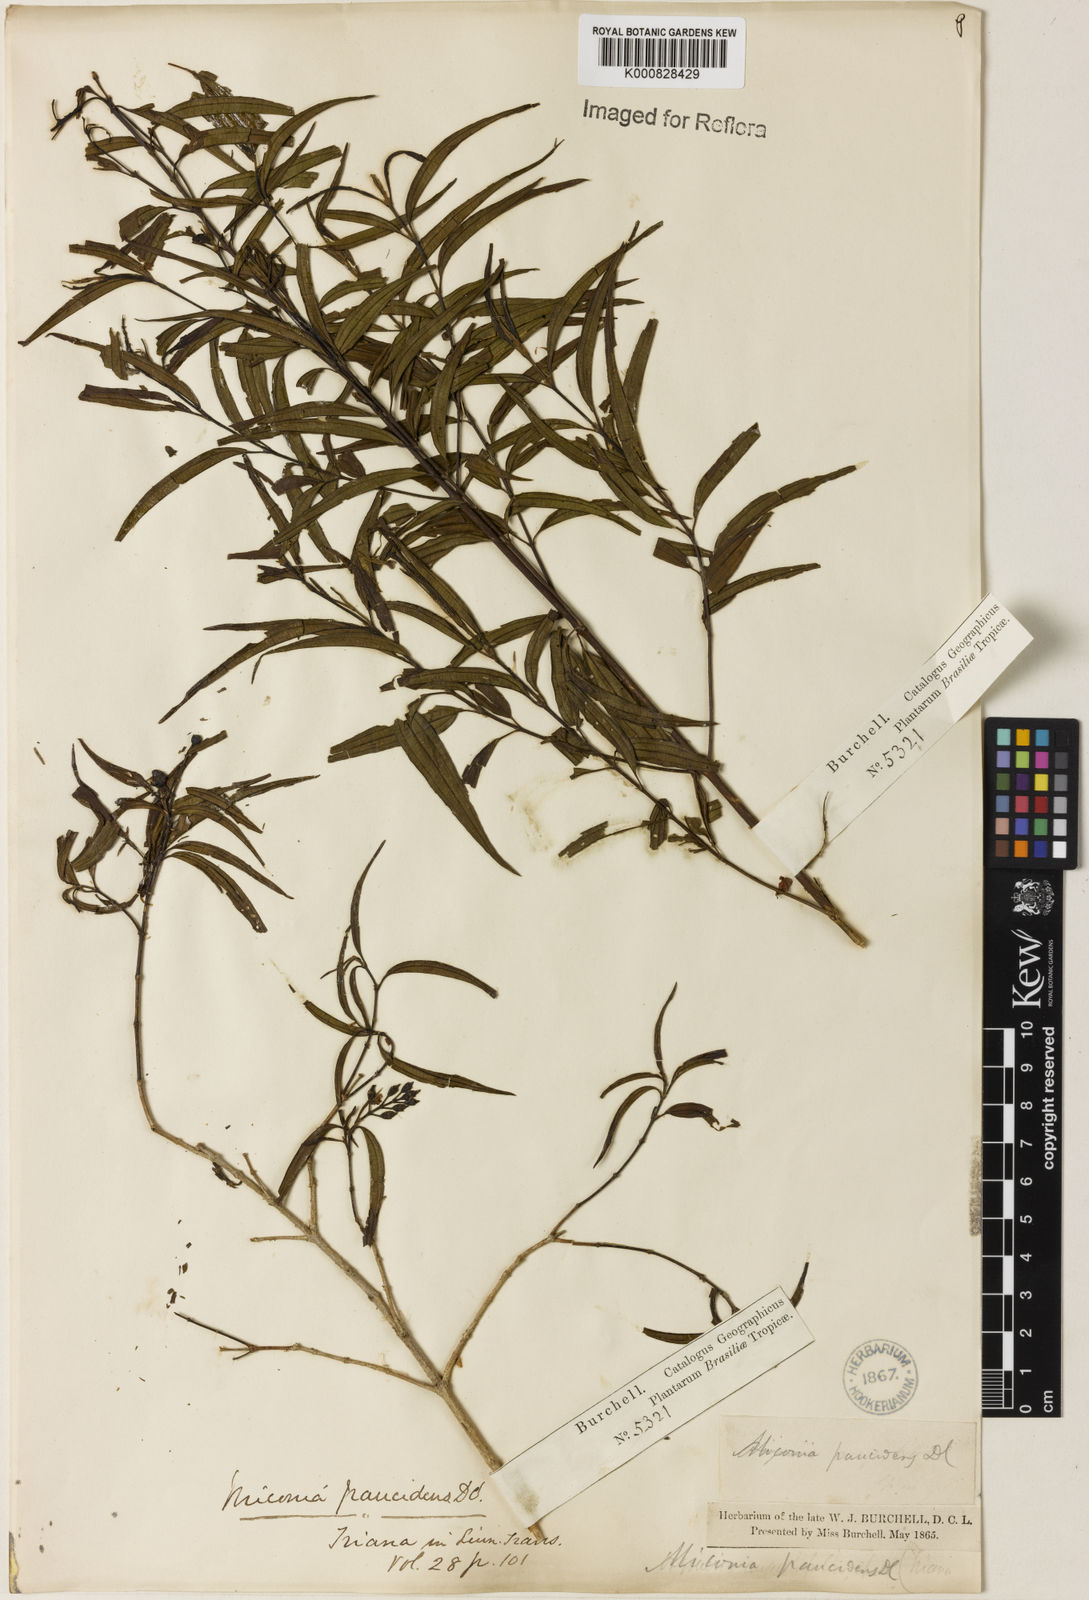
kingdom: Plantae
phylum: Tracheophyta
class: Magnoliopsida
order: Myrtales
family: Melastomataceae
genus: Miconia
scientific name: Miconia paucidens
